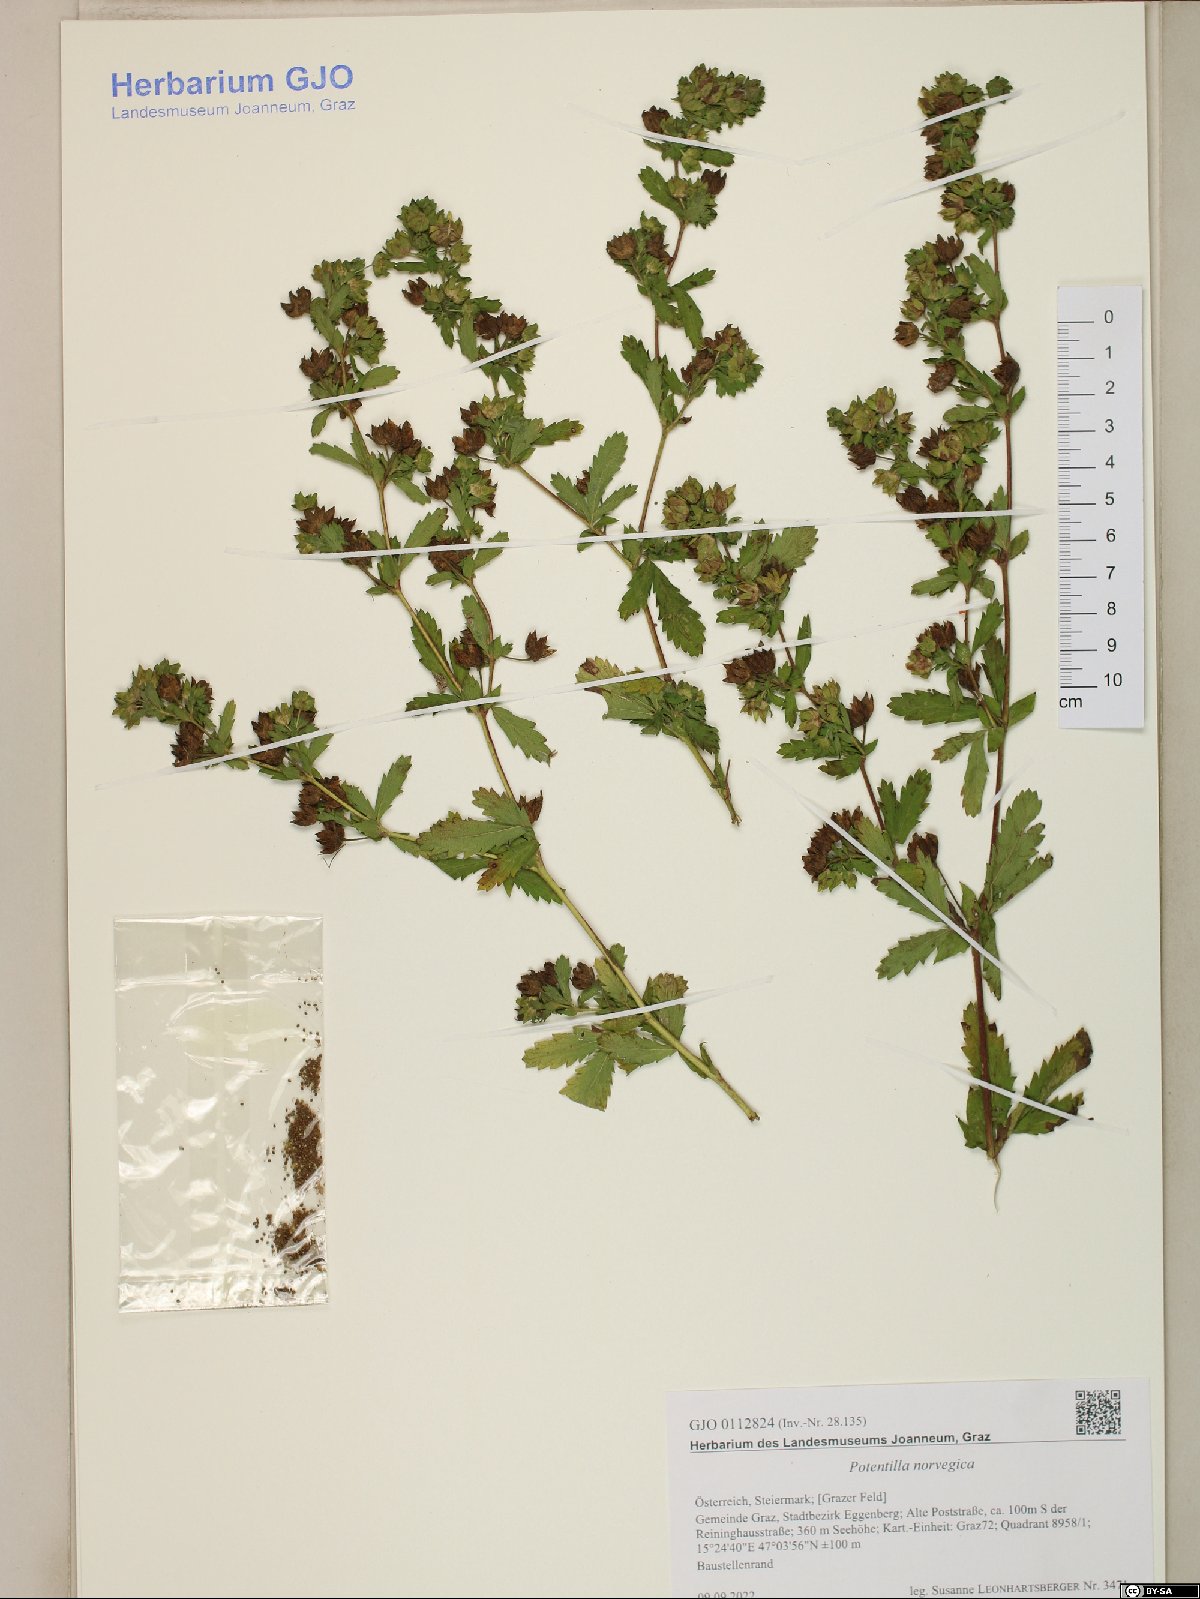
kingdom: Plantae
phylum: Tracheophyta
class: Magnoliopsida
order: Rosales
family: Rosaceae
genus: Potentilla
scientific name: Potentilla norvegica
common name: Ternate-leaved cinquefoil
